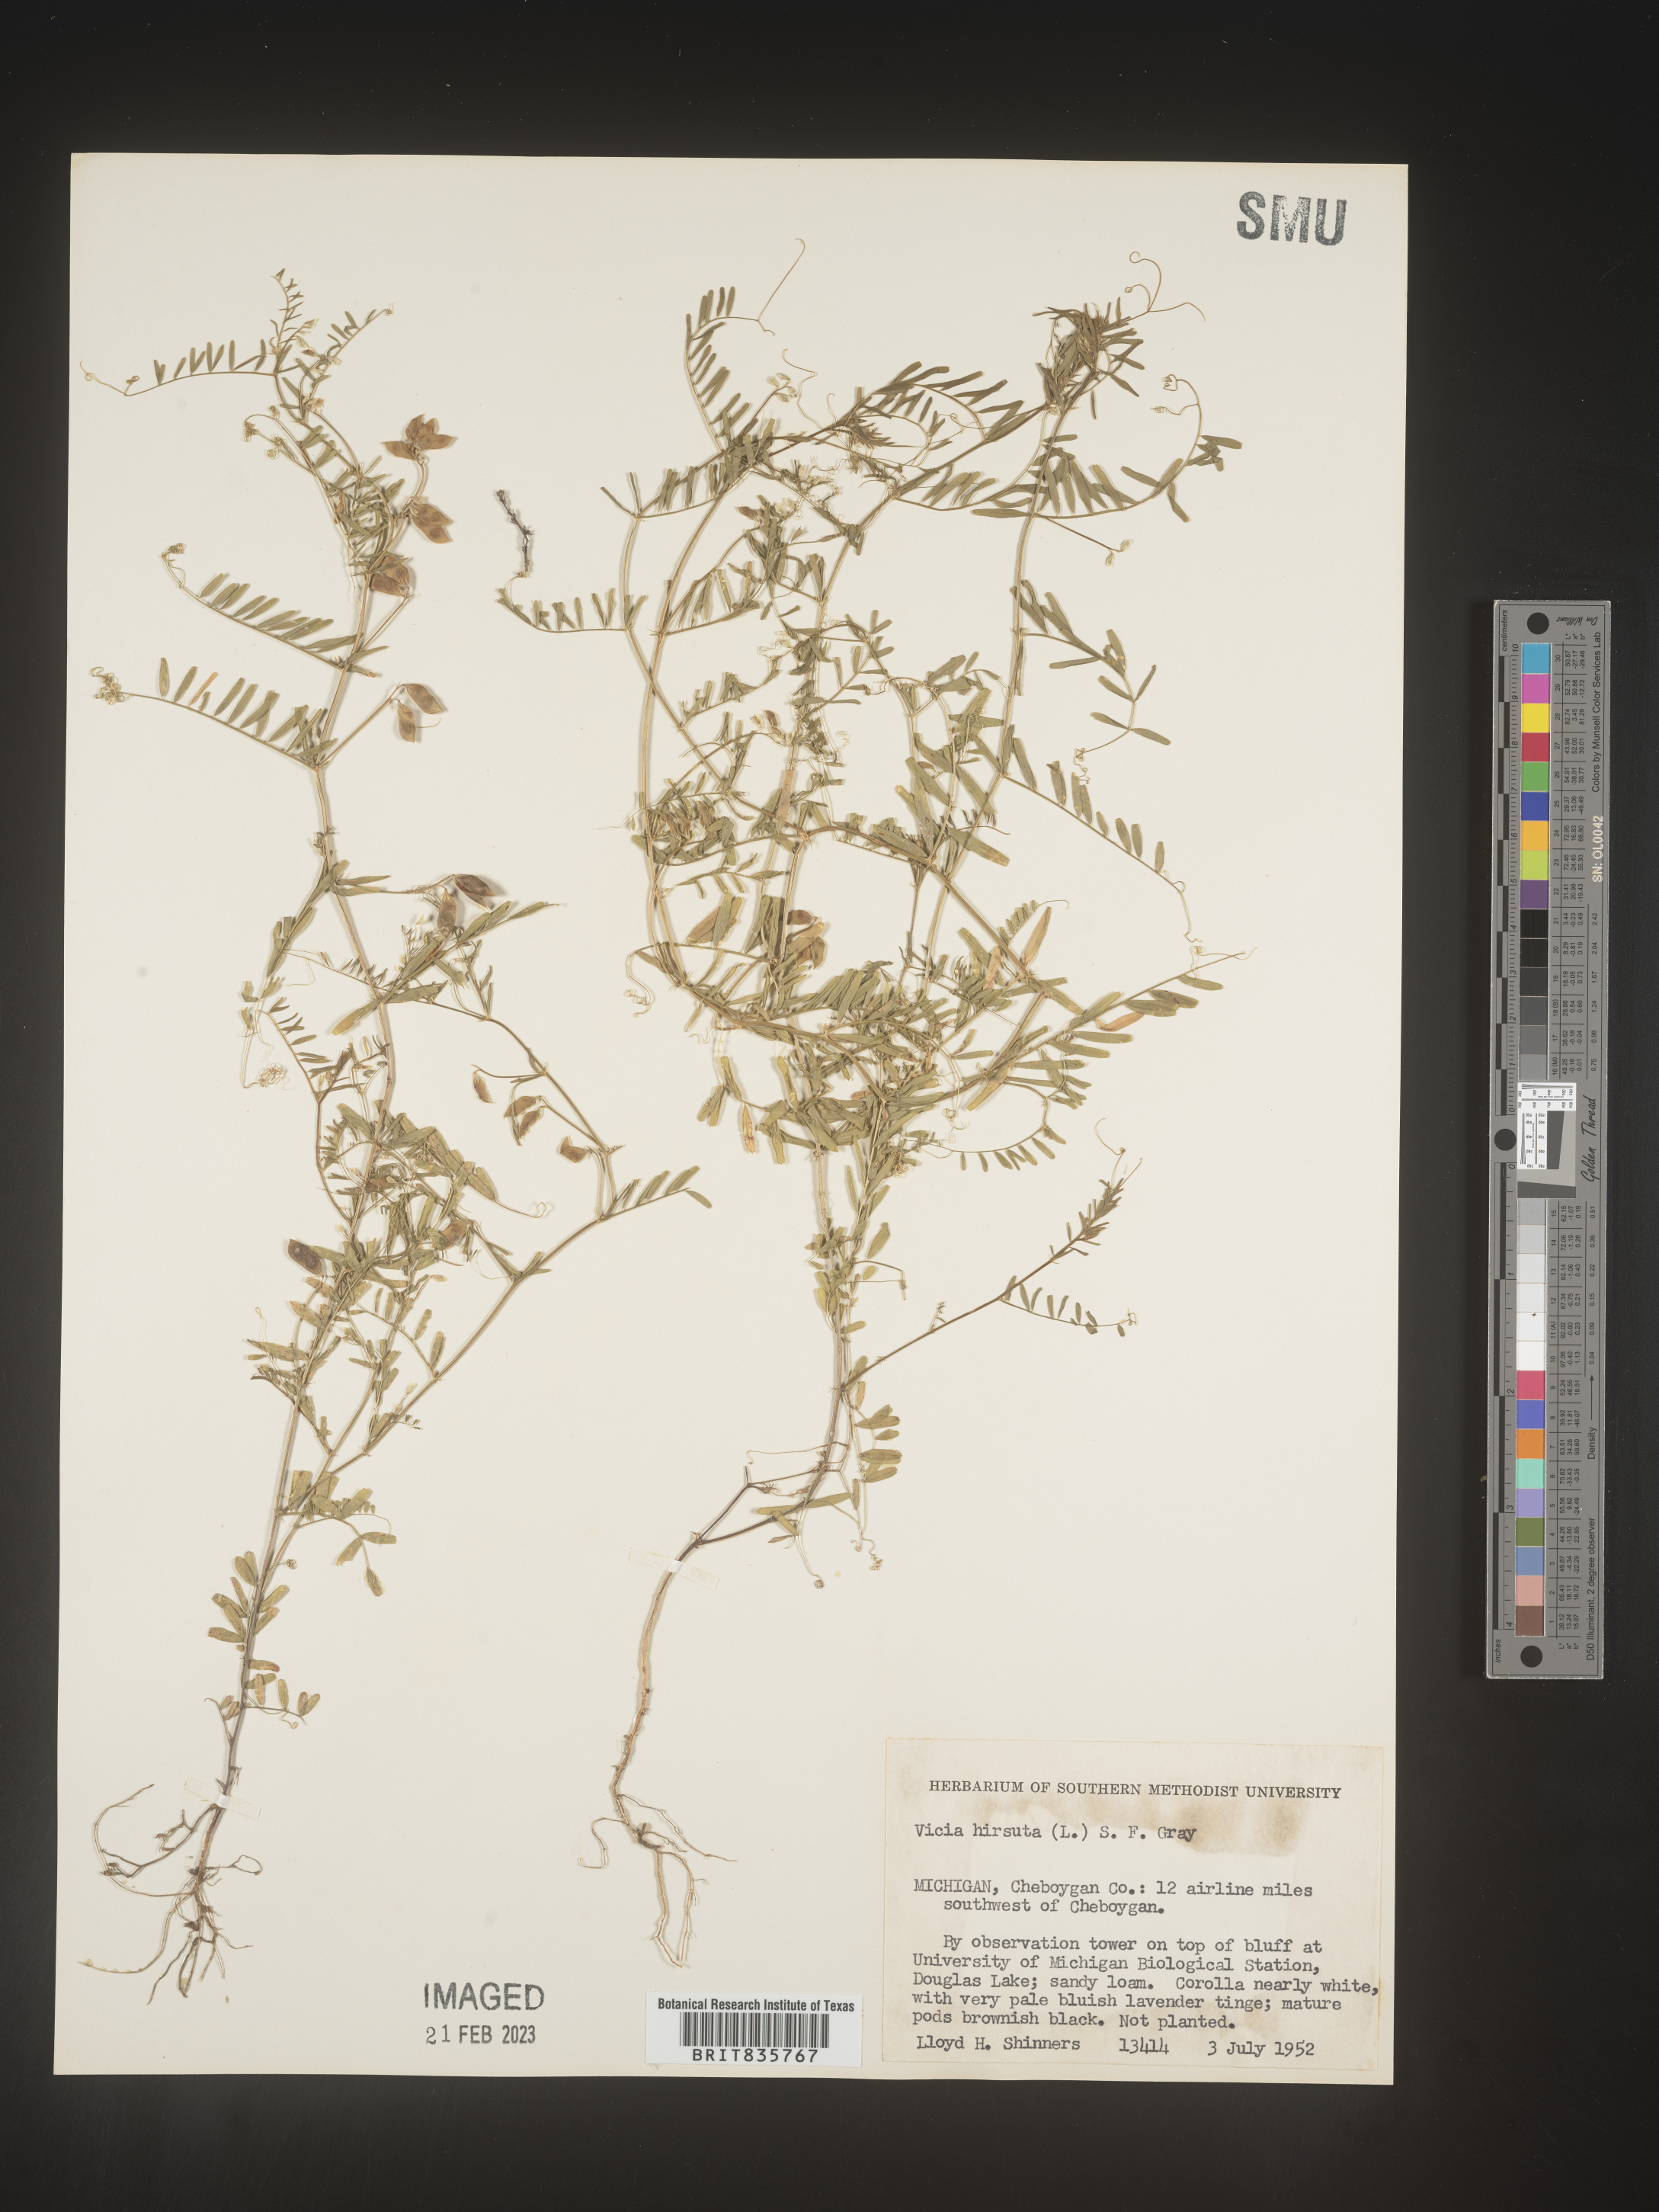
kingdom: Plantae
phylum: Tracheophyta
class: Magnoliopsida
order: Fabales
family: Fabaceae
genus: Vicia
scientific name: Vicia
